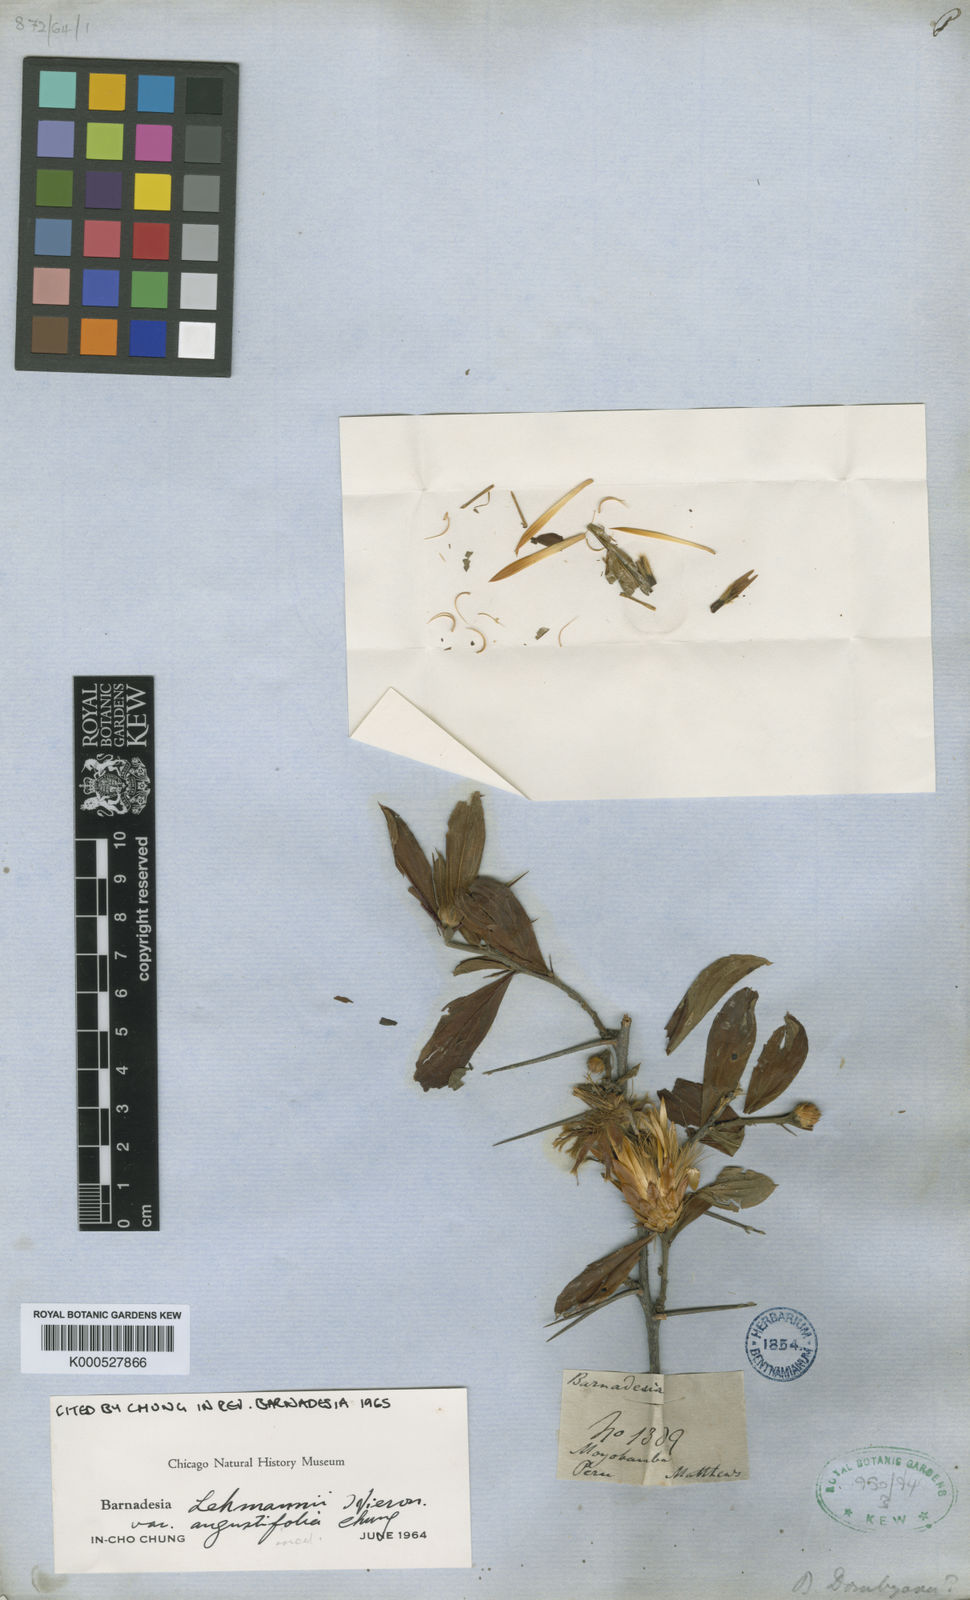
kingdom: Plantae
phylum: Tracheophyta
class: Magnoliopsida
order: Asterales
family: Asteraceae
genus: Barnadesia
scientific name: Barnadesia lehmannii
